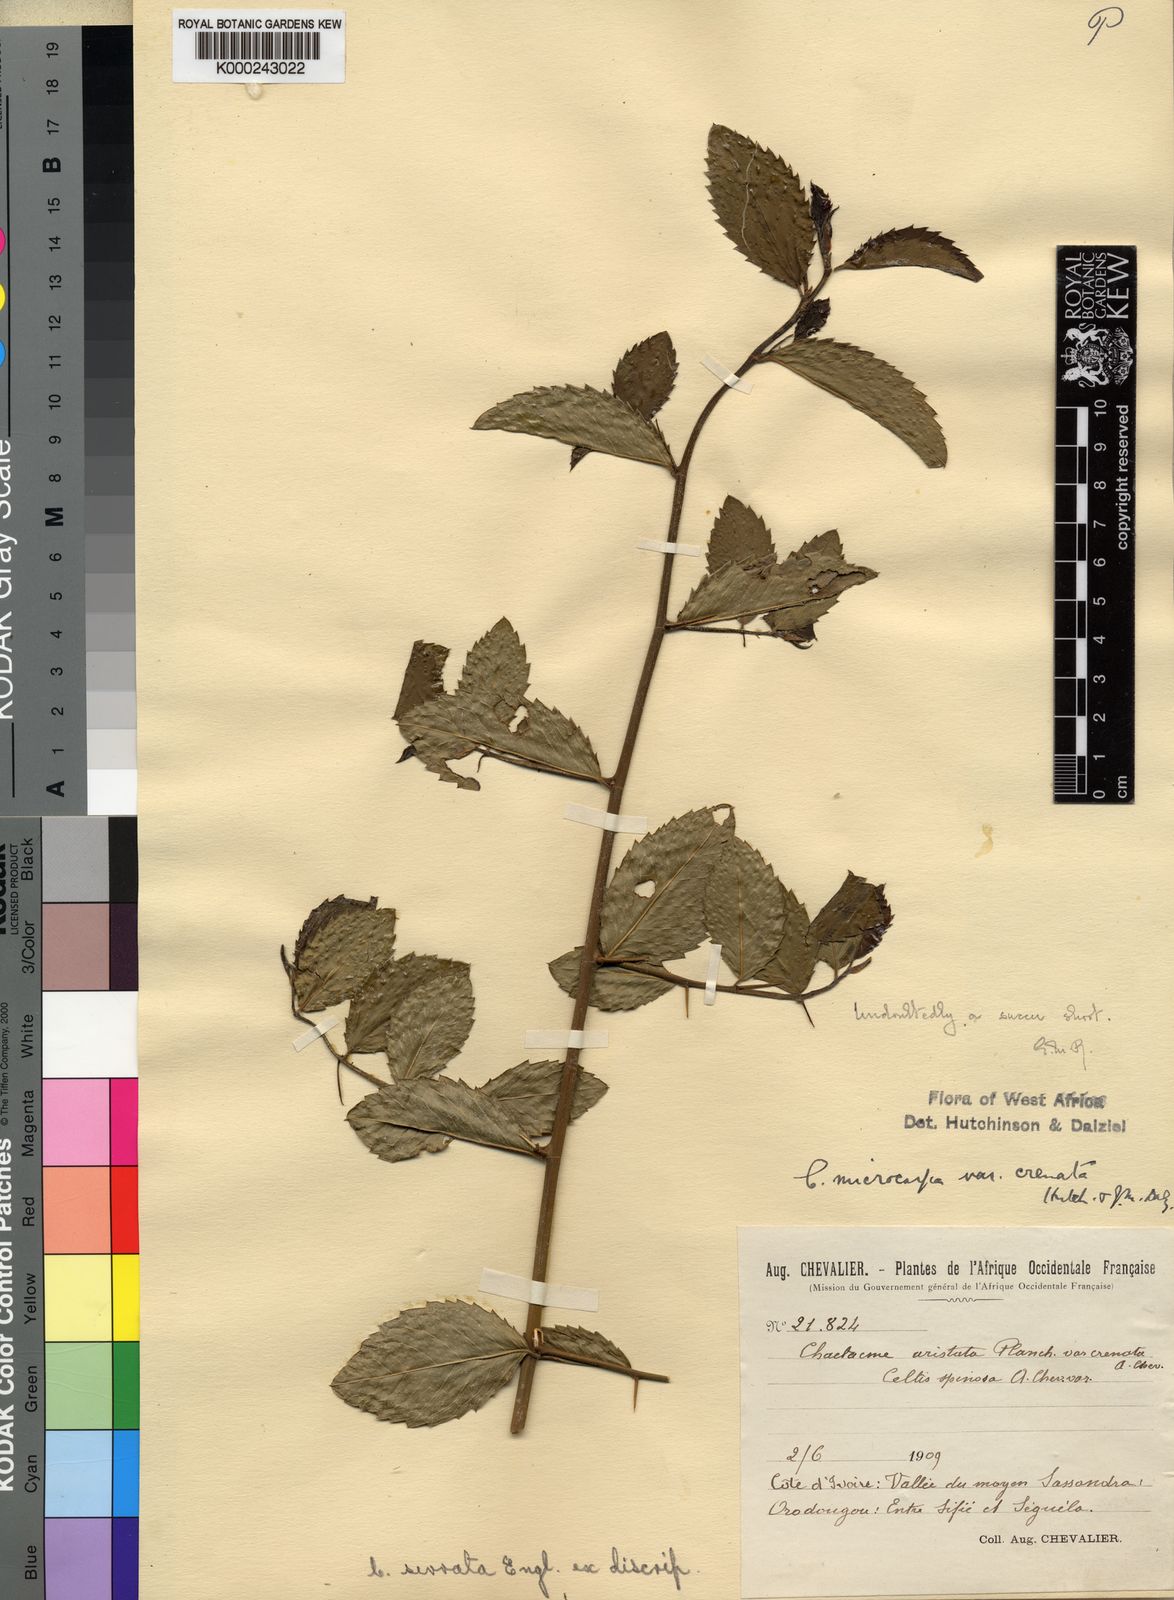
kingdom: Plantae
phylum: Tracheophyta
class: Magnoliopsida
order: Rosales
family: Cannabaceae
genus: Chaetachme
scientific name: Chaetachme
